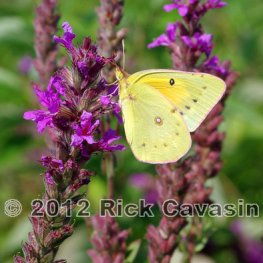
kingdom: Animalia
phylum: Arthropoda
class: Insecta
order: Lepidoptera
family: Pieridae
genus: Colias
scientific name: Colias eurytheme
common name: Orange Sulphur
